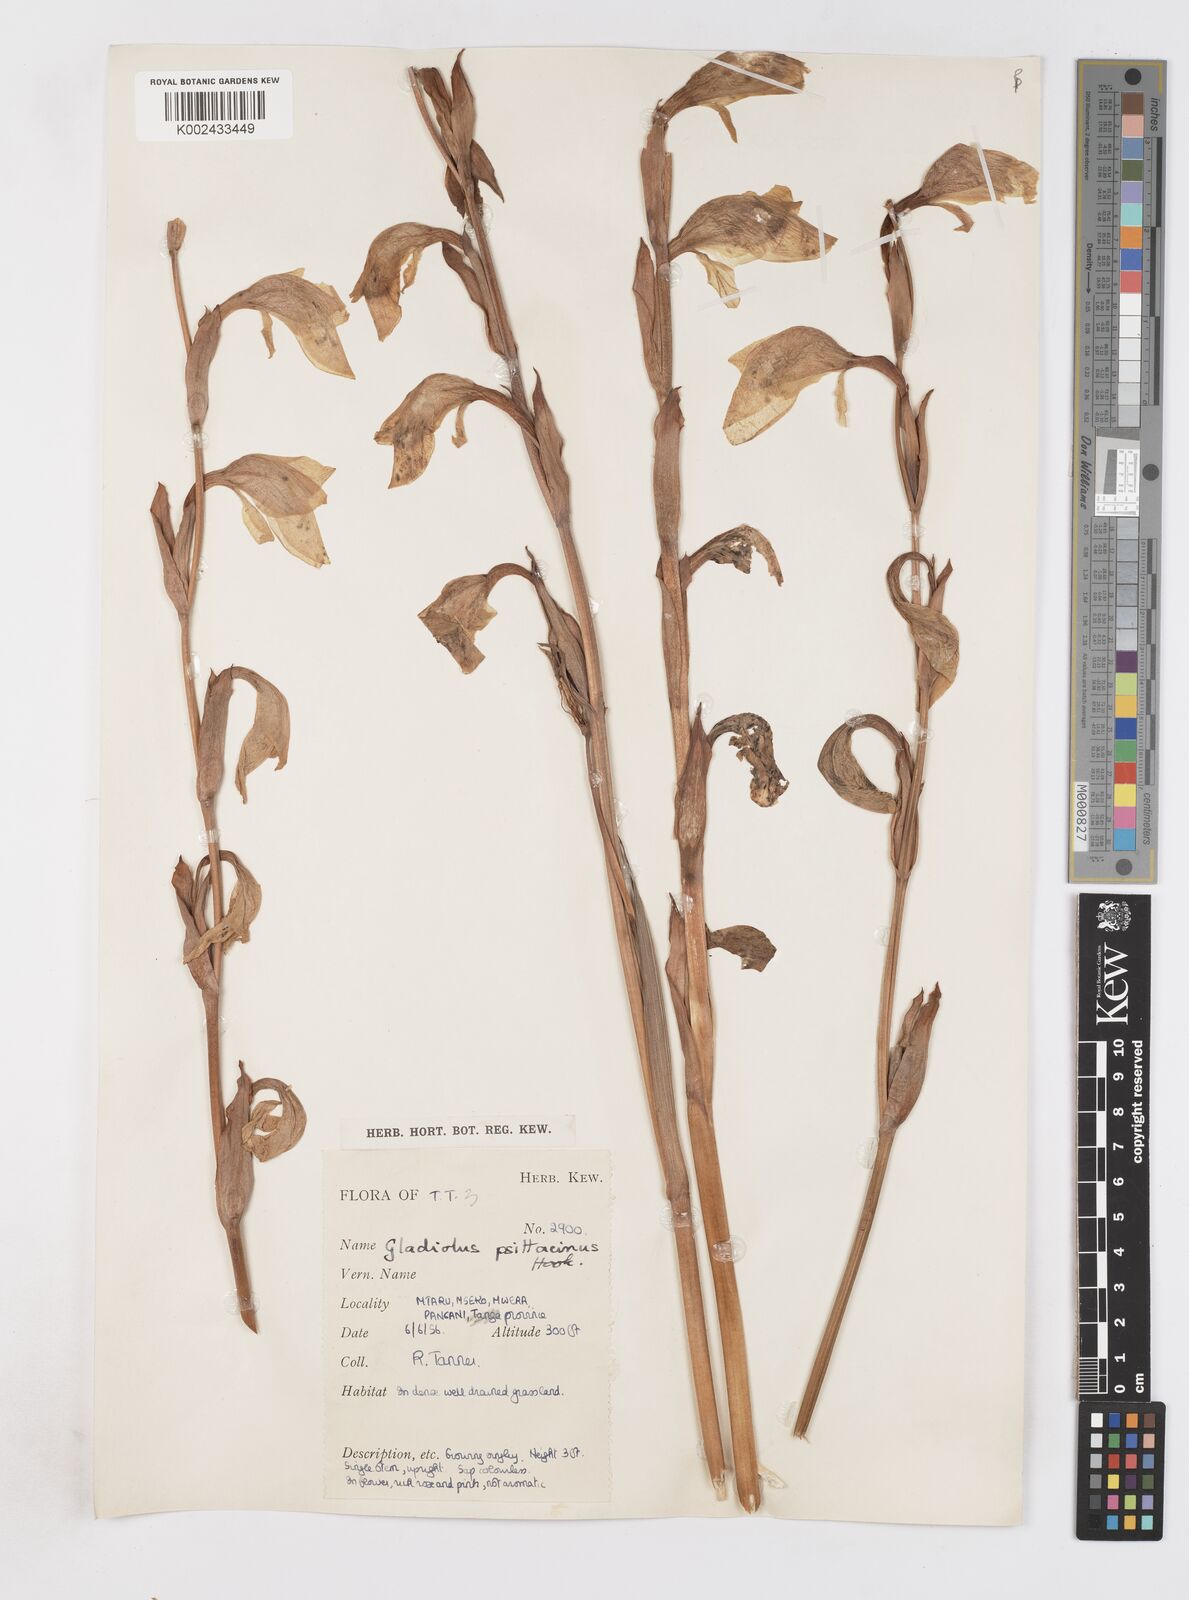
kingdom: Plantae
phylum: Tracheophyta
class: Liliopsida
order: Asparagales
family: Iridaceae
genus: Gladiolus
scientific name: Gladiolus dalenii
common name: Cornflag
